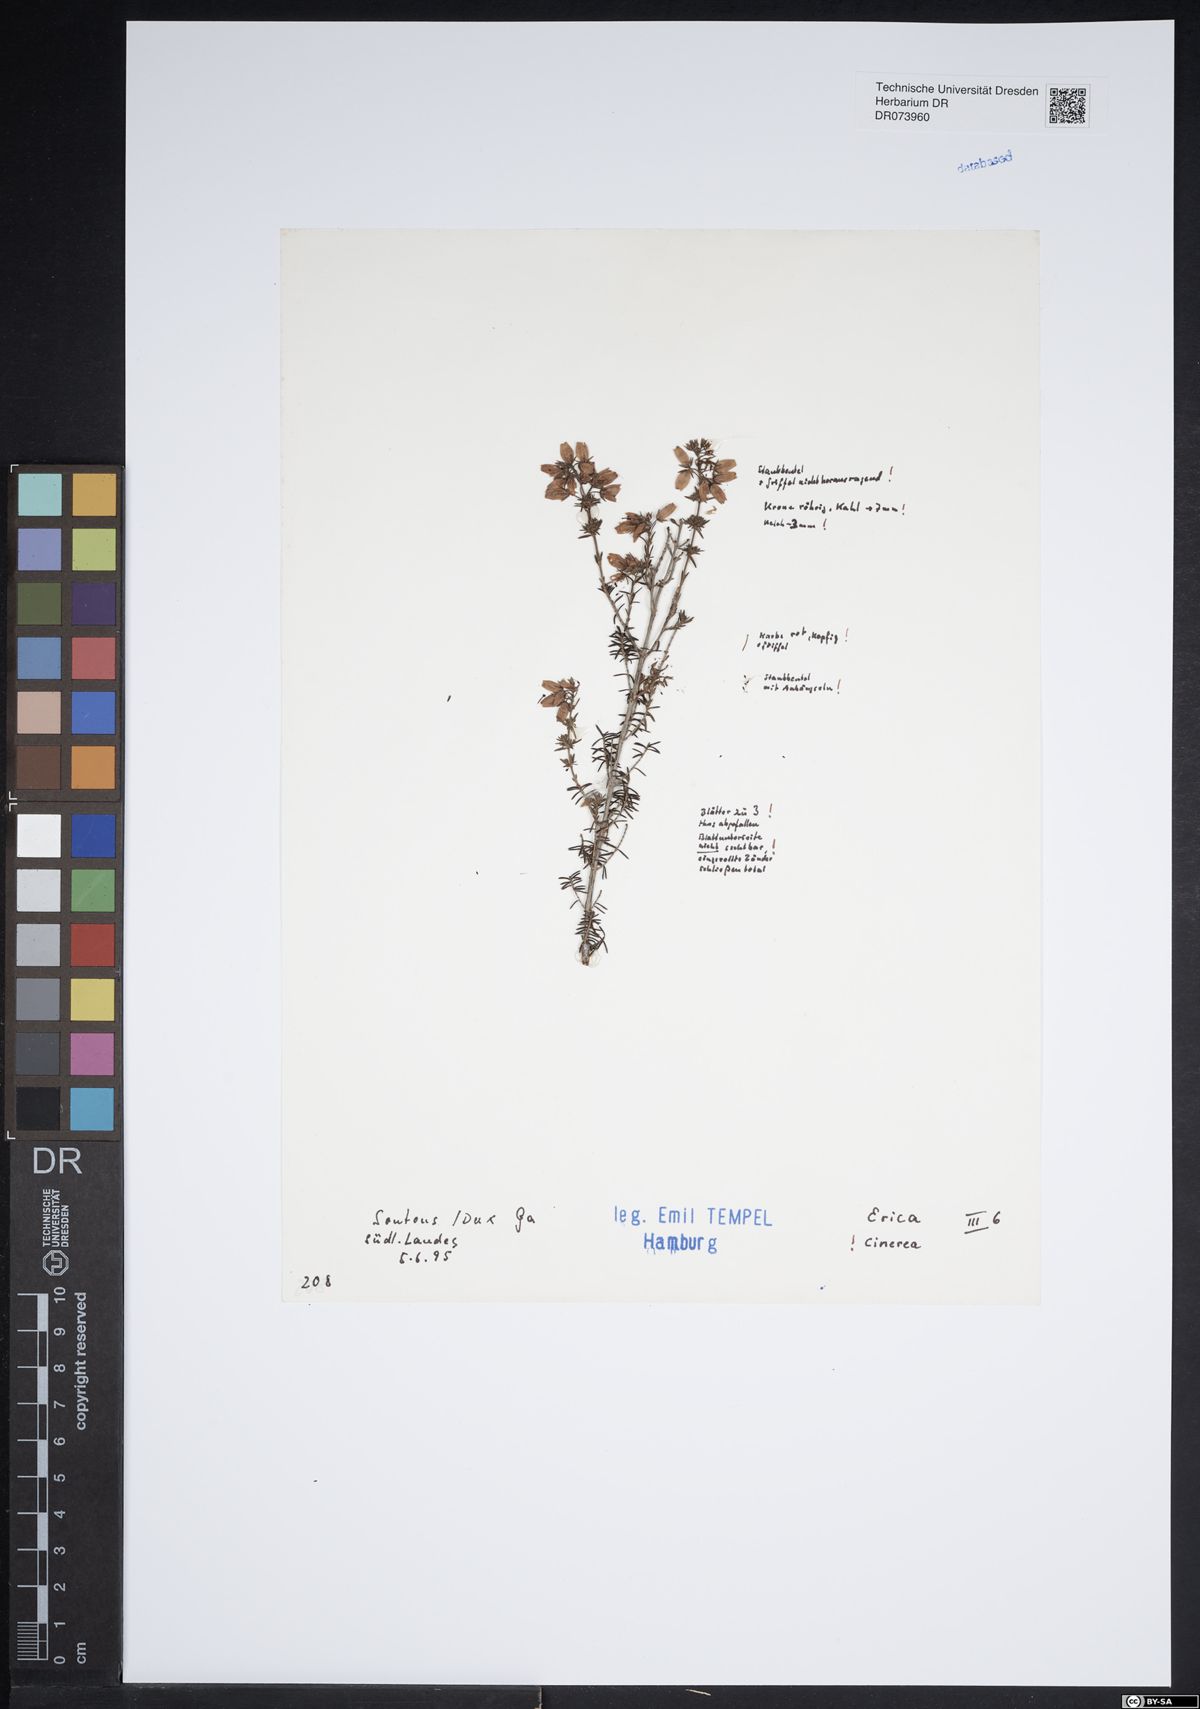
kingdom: Plantae
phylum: Tracheophyta
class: Magnoliopsida
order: Ericales
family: Ericaceae
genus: Erica
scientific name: Erica cinerea
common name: Bell heather
